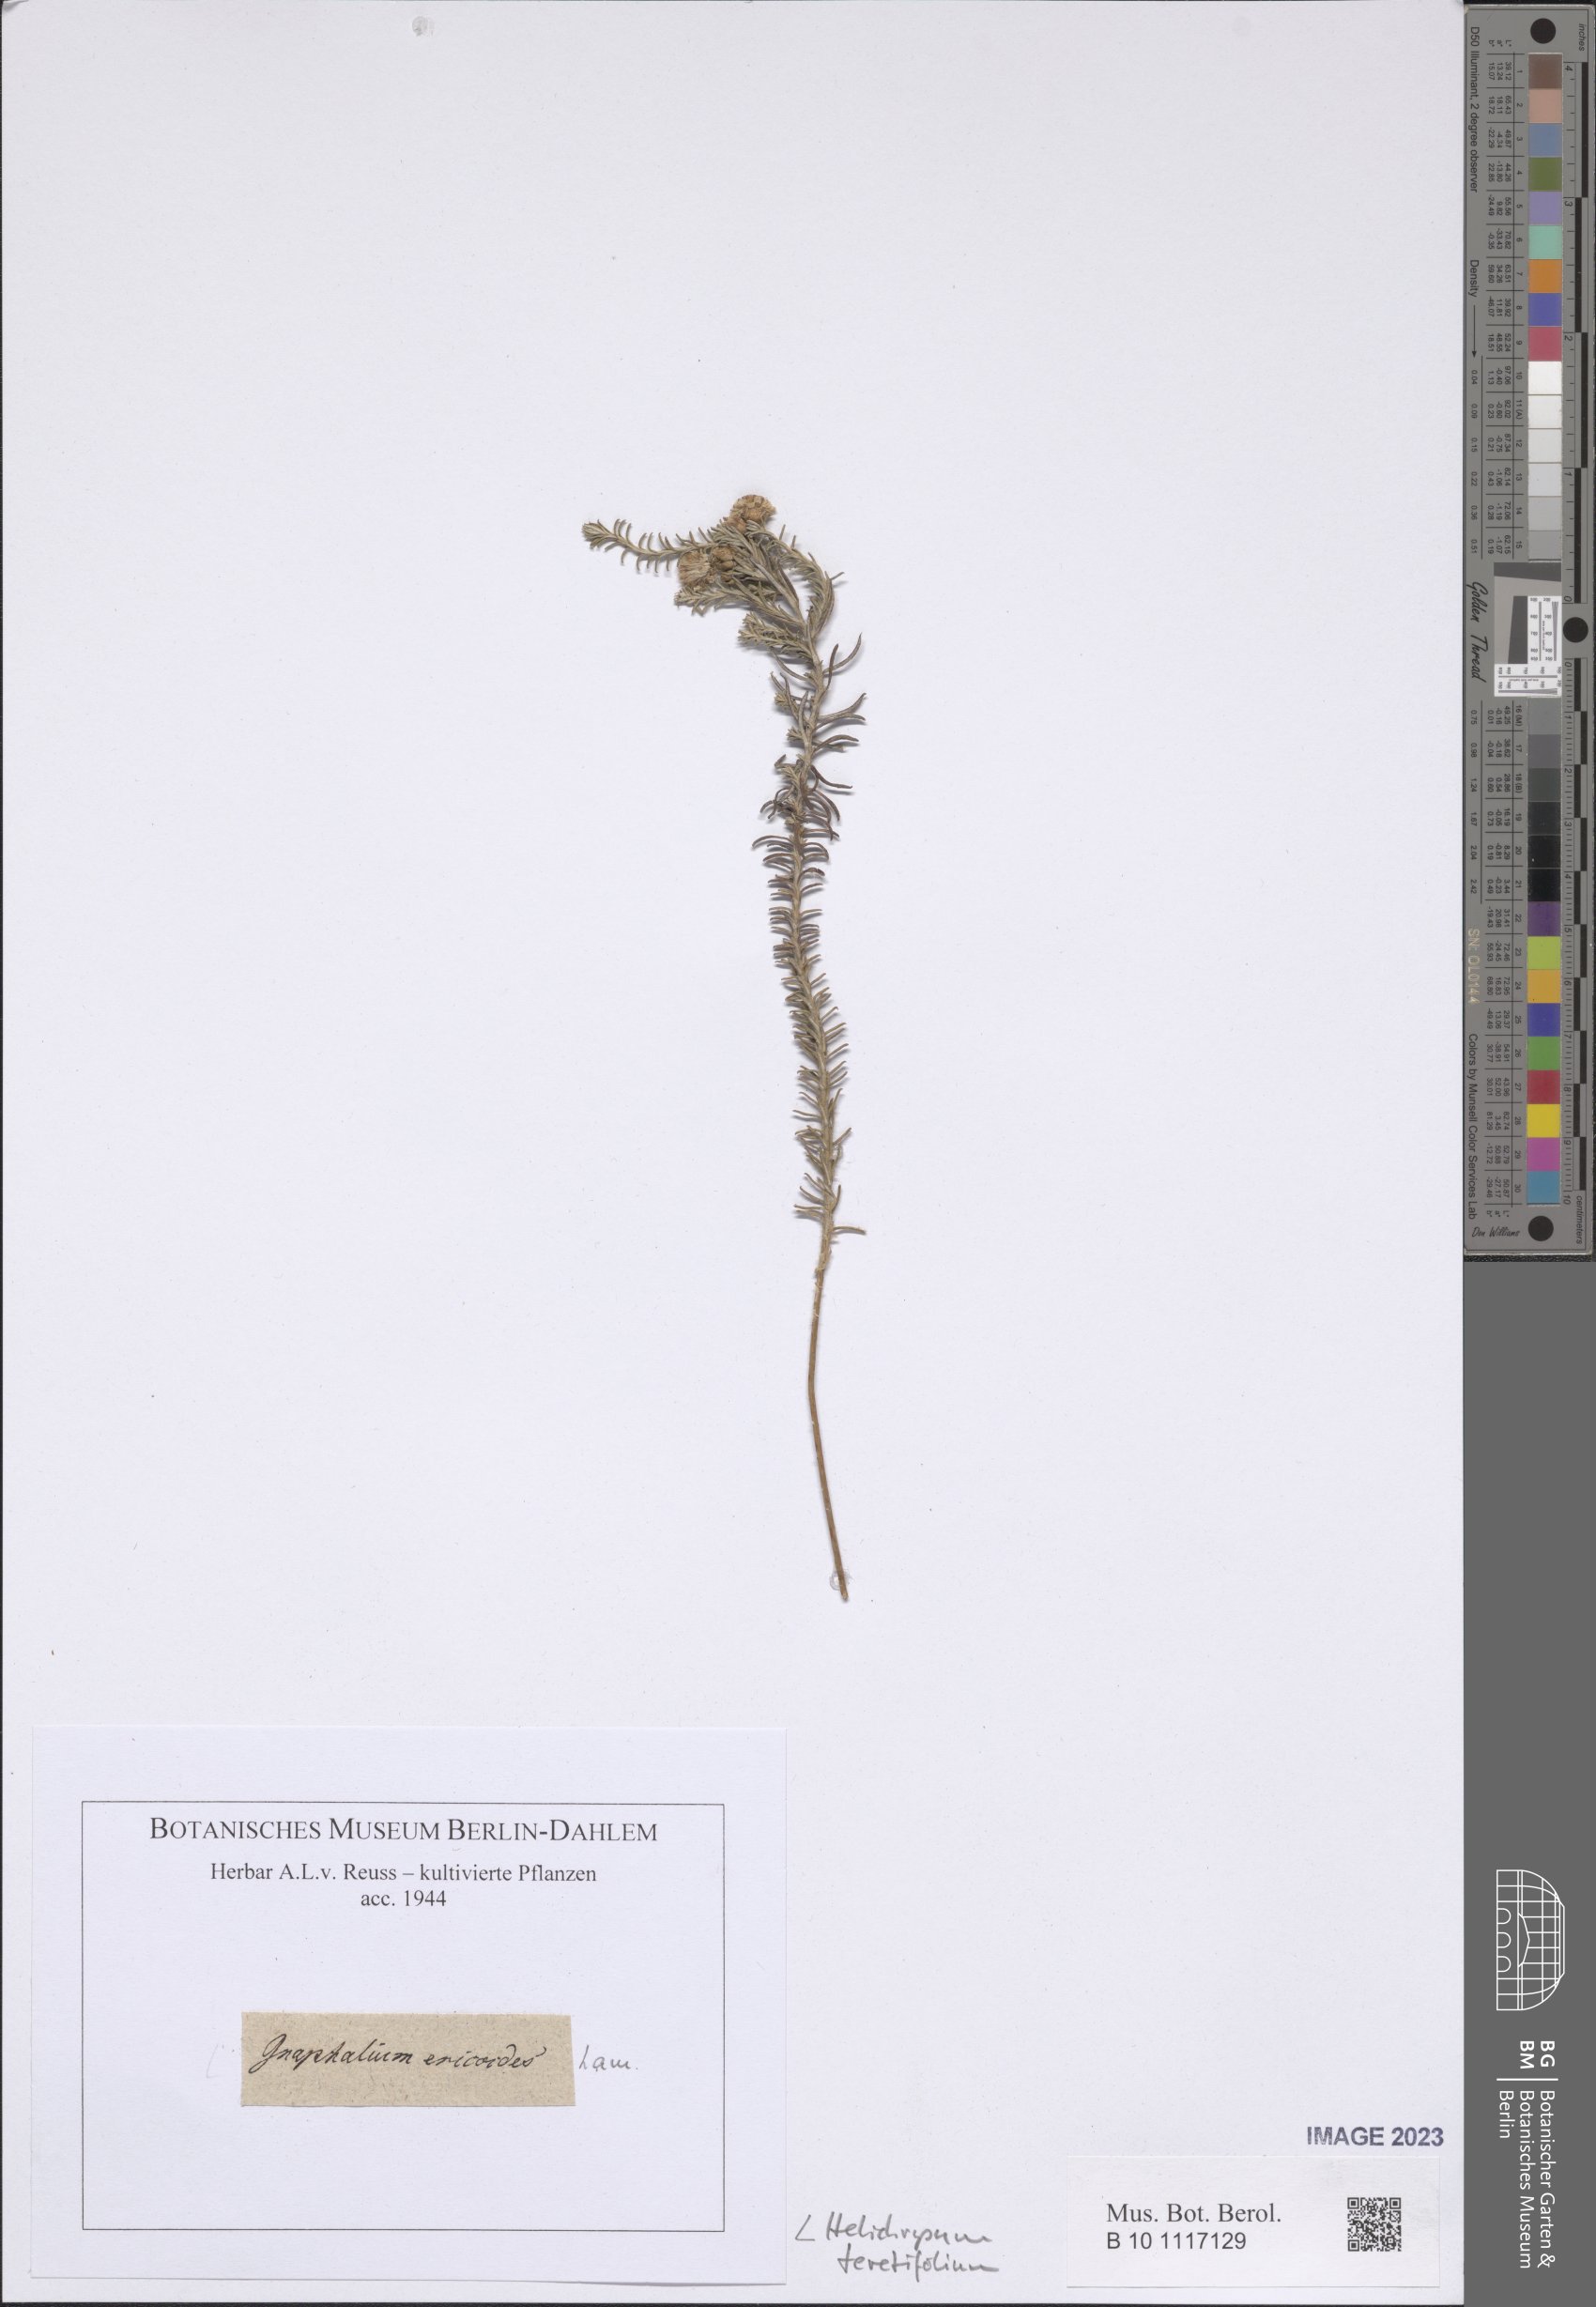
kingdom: Plantae
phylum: Tracheophyta
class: Magnoliopsida
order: Asterales
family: Asteraceae
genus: Helichrysum
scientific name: Helichrysum teretifolium
